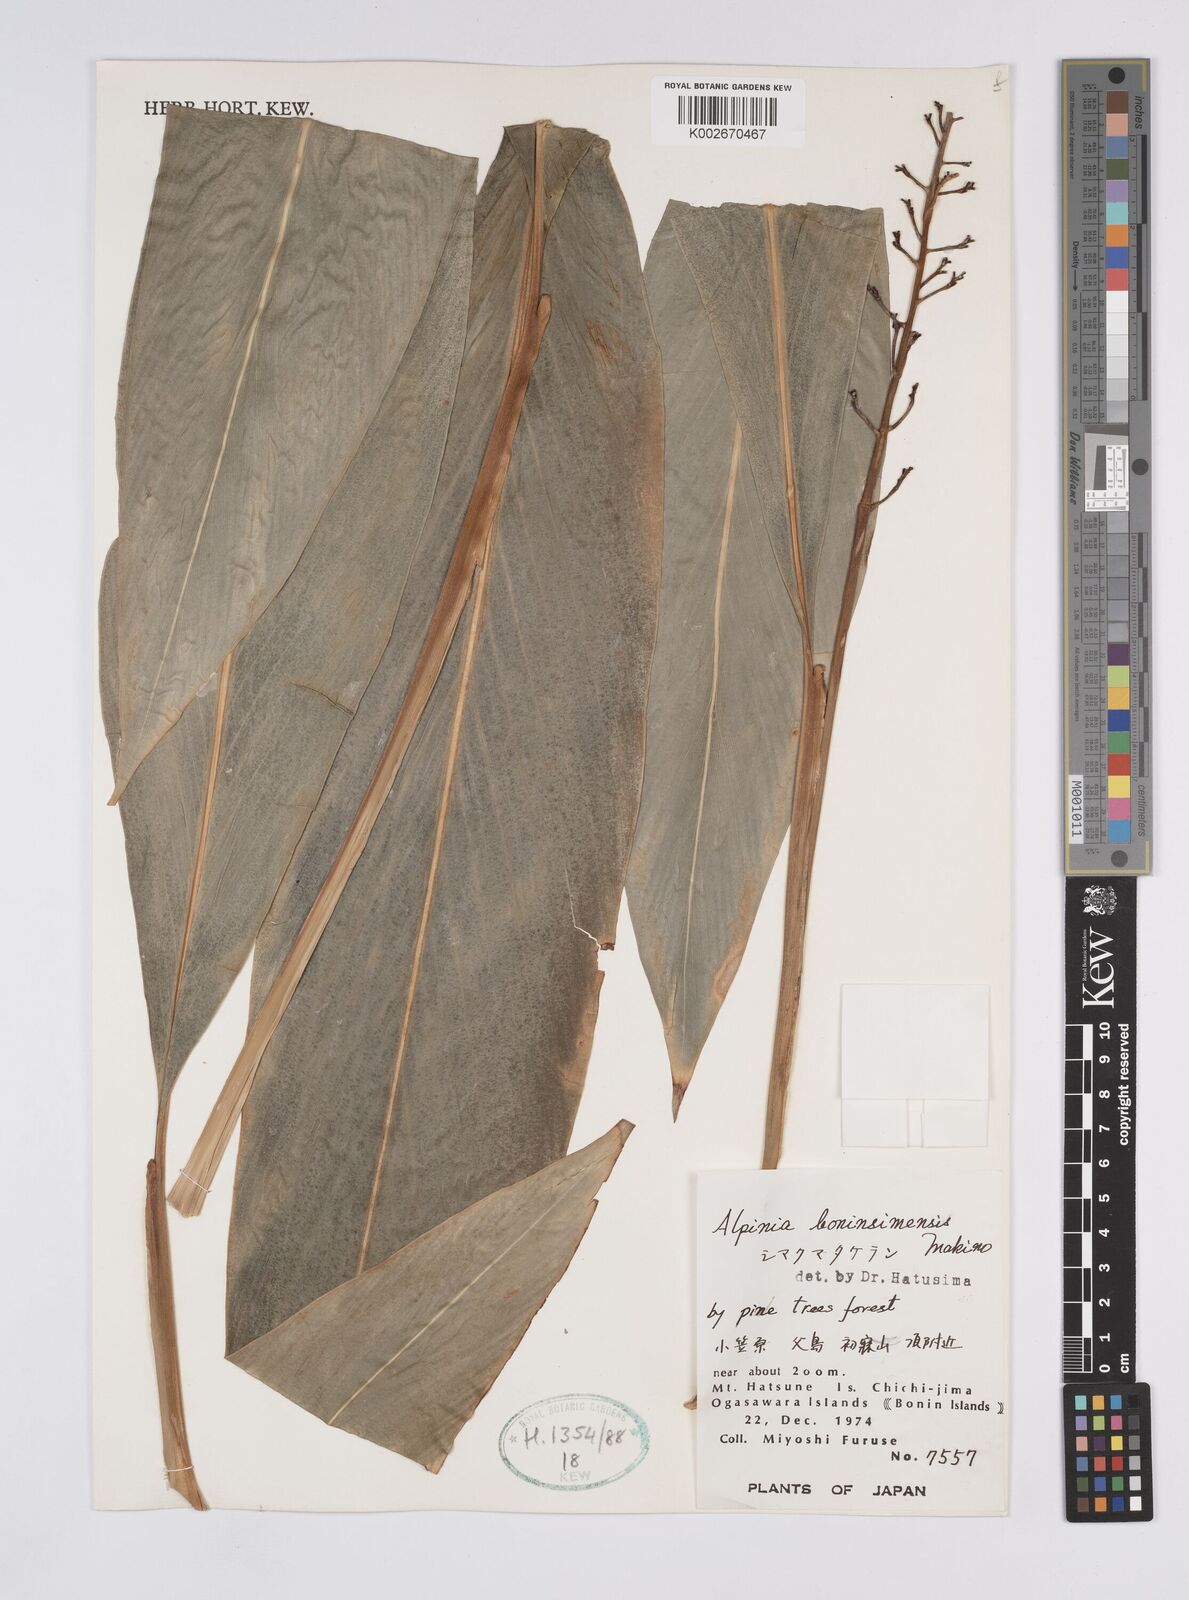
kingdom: Plantae
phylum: Tracheophyta
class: Liliopsida
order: Zingiberales
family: Zingiberaceae
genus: Alpinia
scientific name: Alpinia boninsimensis
